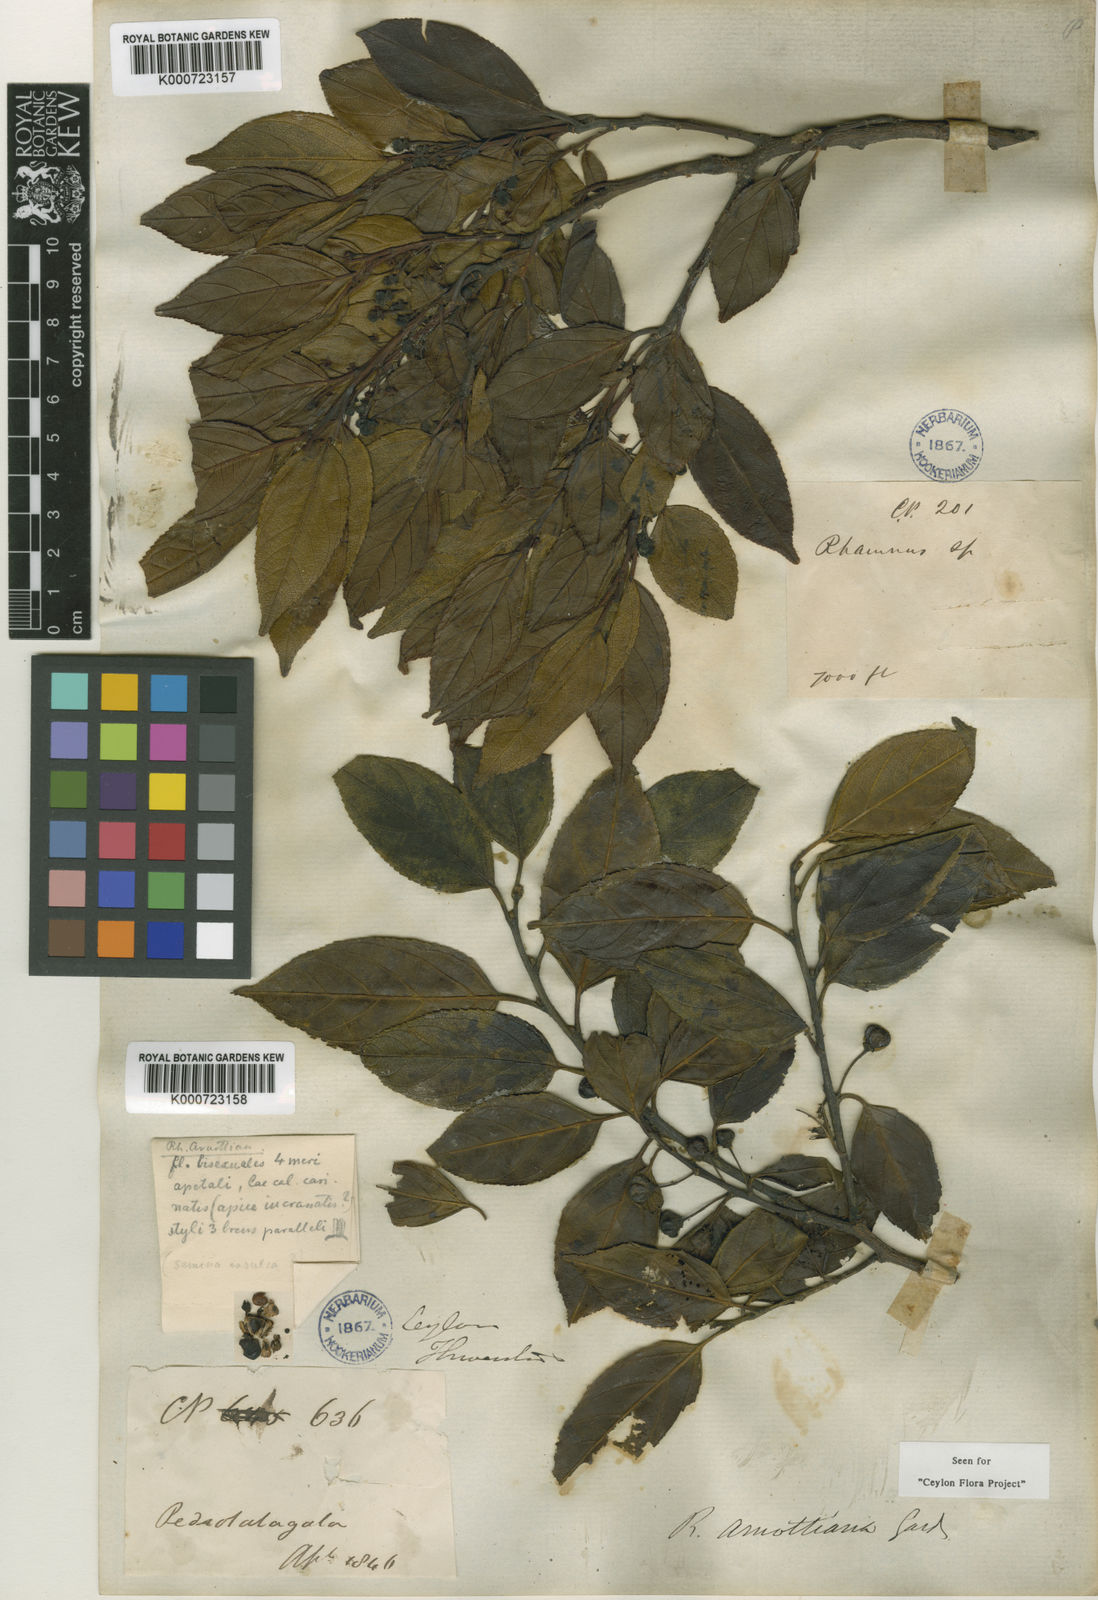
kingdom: Plantae
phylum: Tracheophyta
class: Magnoliopsida
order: Rosales
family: Rhamnaceae
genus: Rhamnus
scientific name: Rhamnus arnottiana
